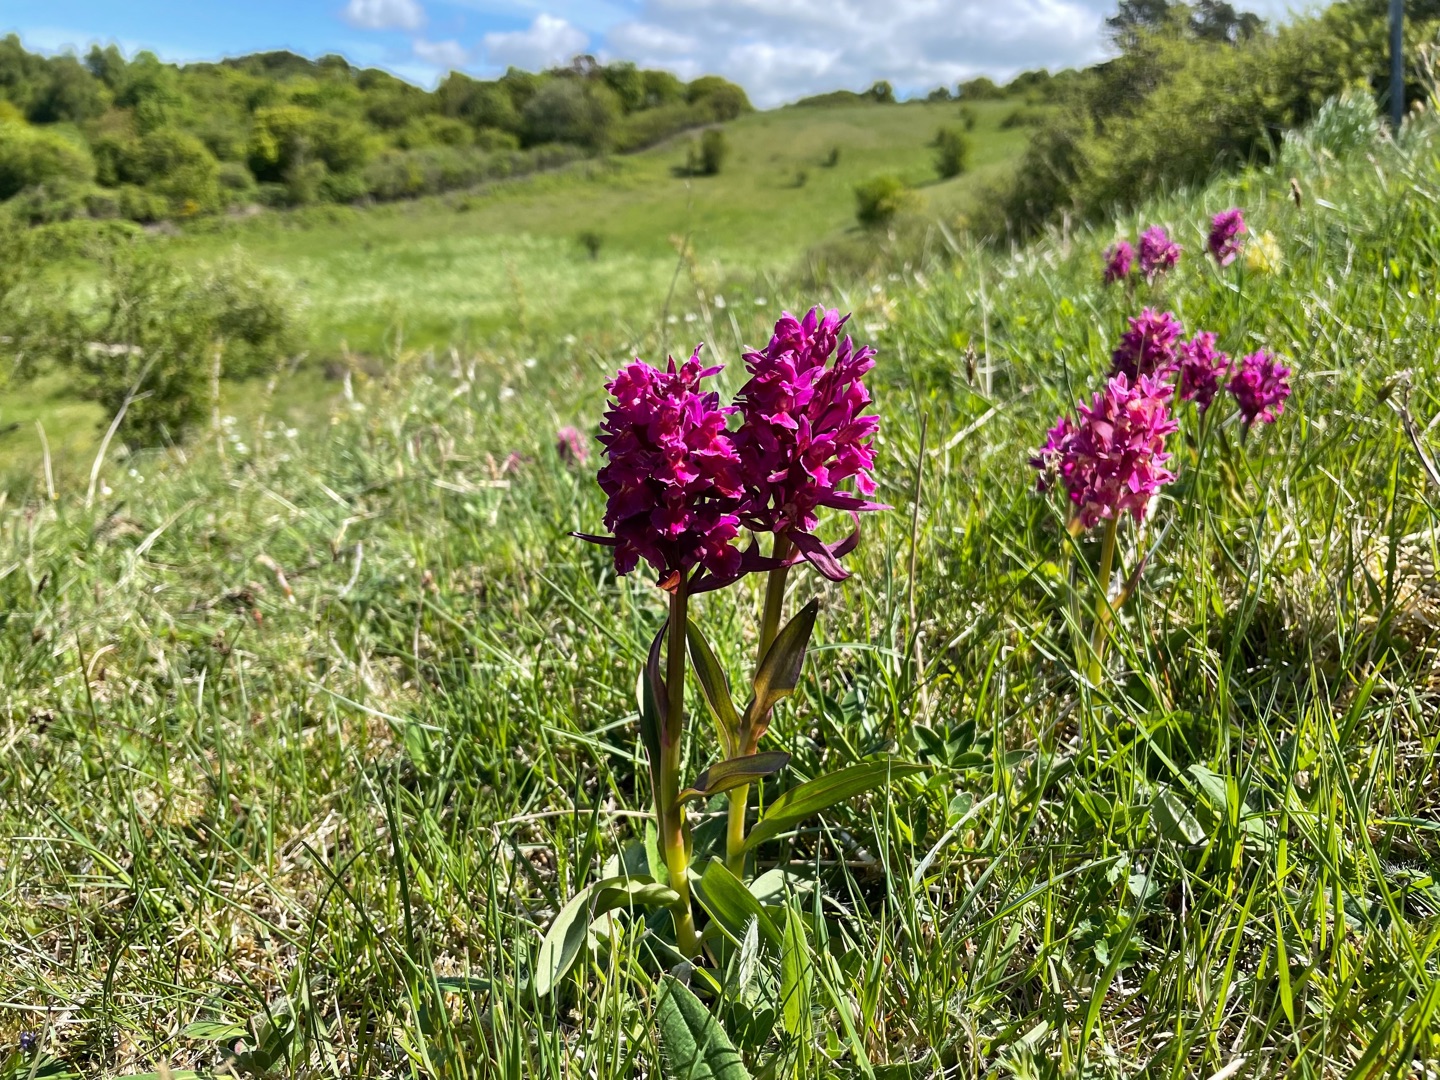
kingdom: Plantae
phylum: Tracheophyta
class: Liliopsida
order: Asparagales
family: Orchidaceae
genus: Dactylorhiza
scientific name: Dactylorhiza sambucina
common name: Hylde-gøgeurt
